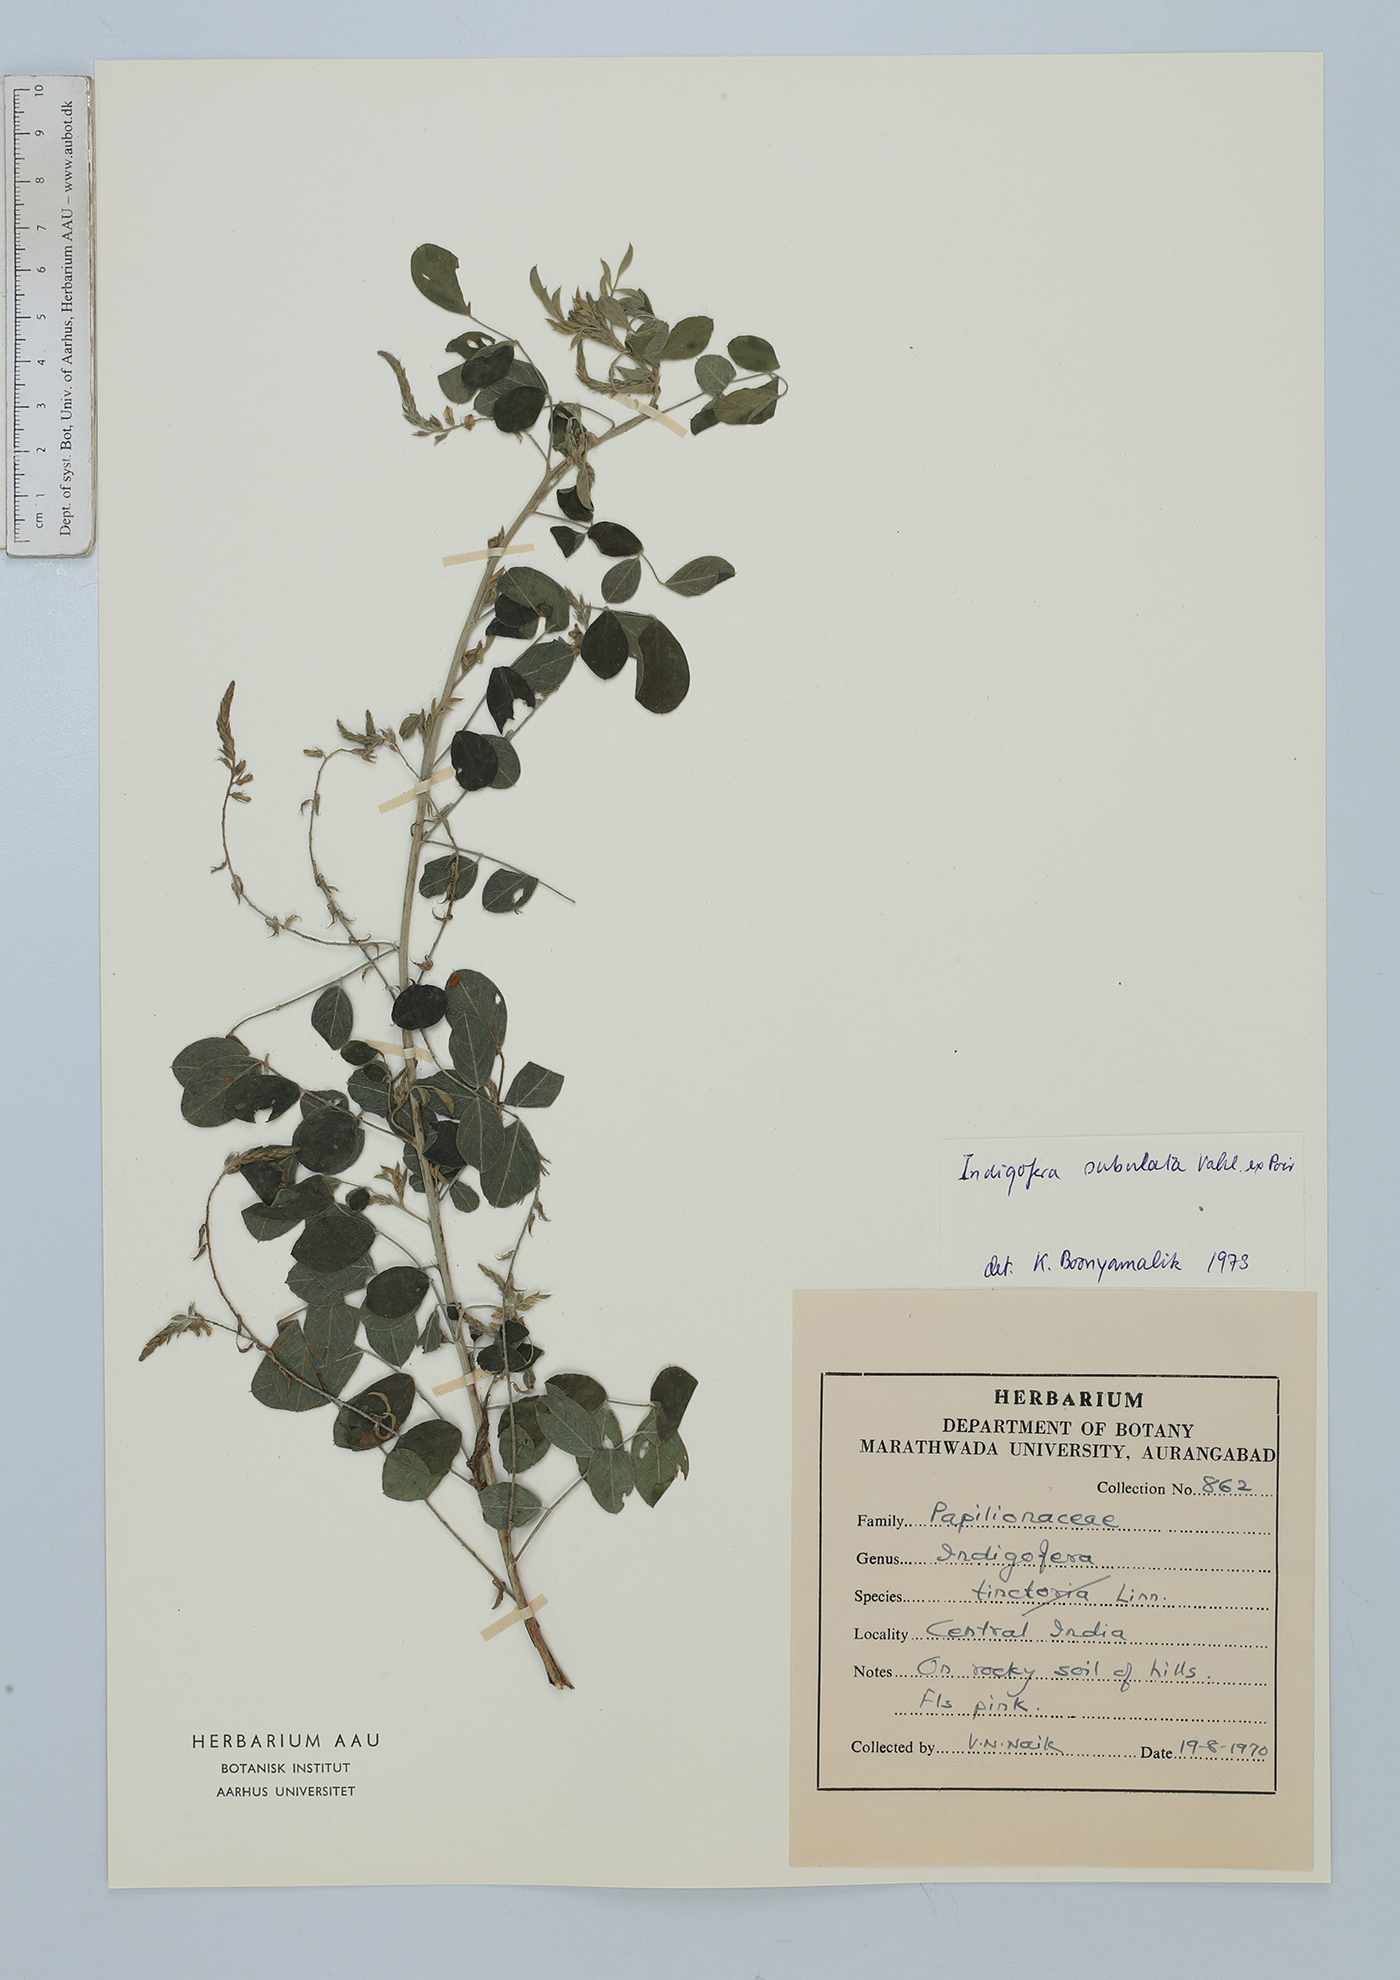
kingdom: Plantae
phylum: Tracheophyta
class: Magnoliopsida
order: Fabales
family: Fabaceae
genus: Indigofera
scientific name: Indigofera subulata
